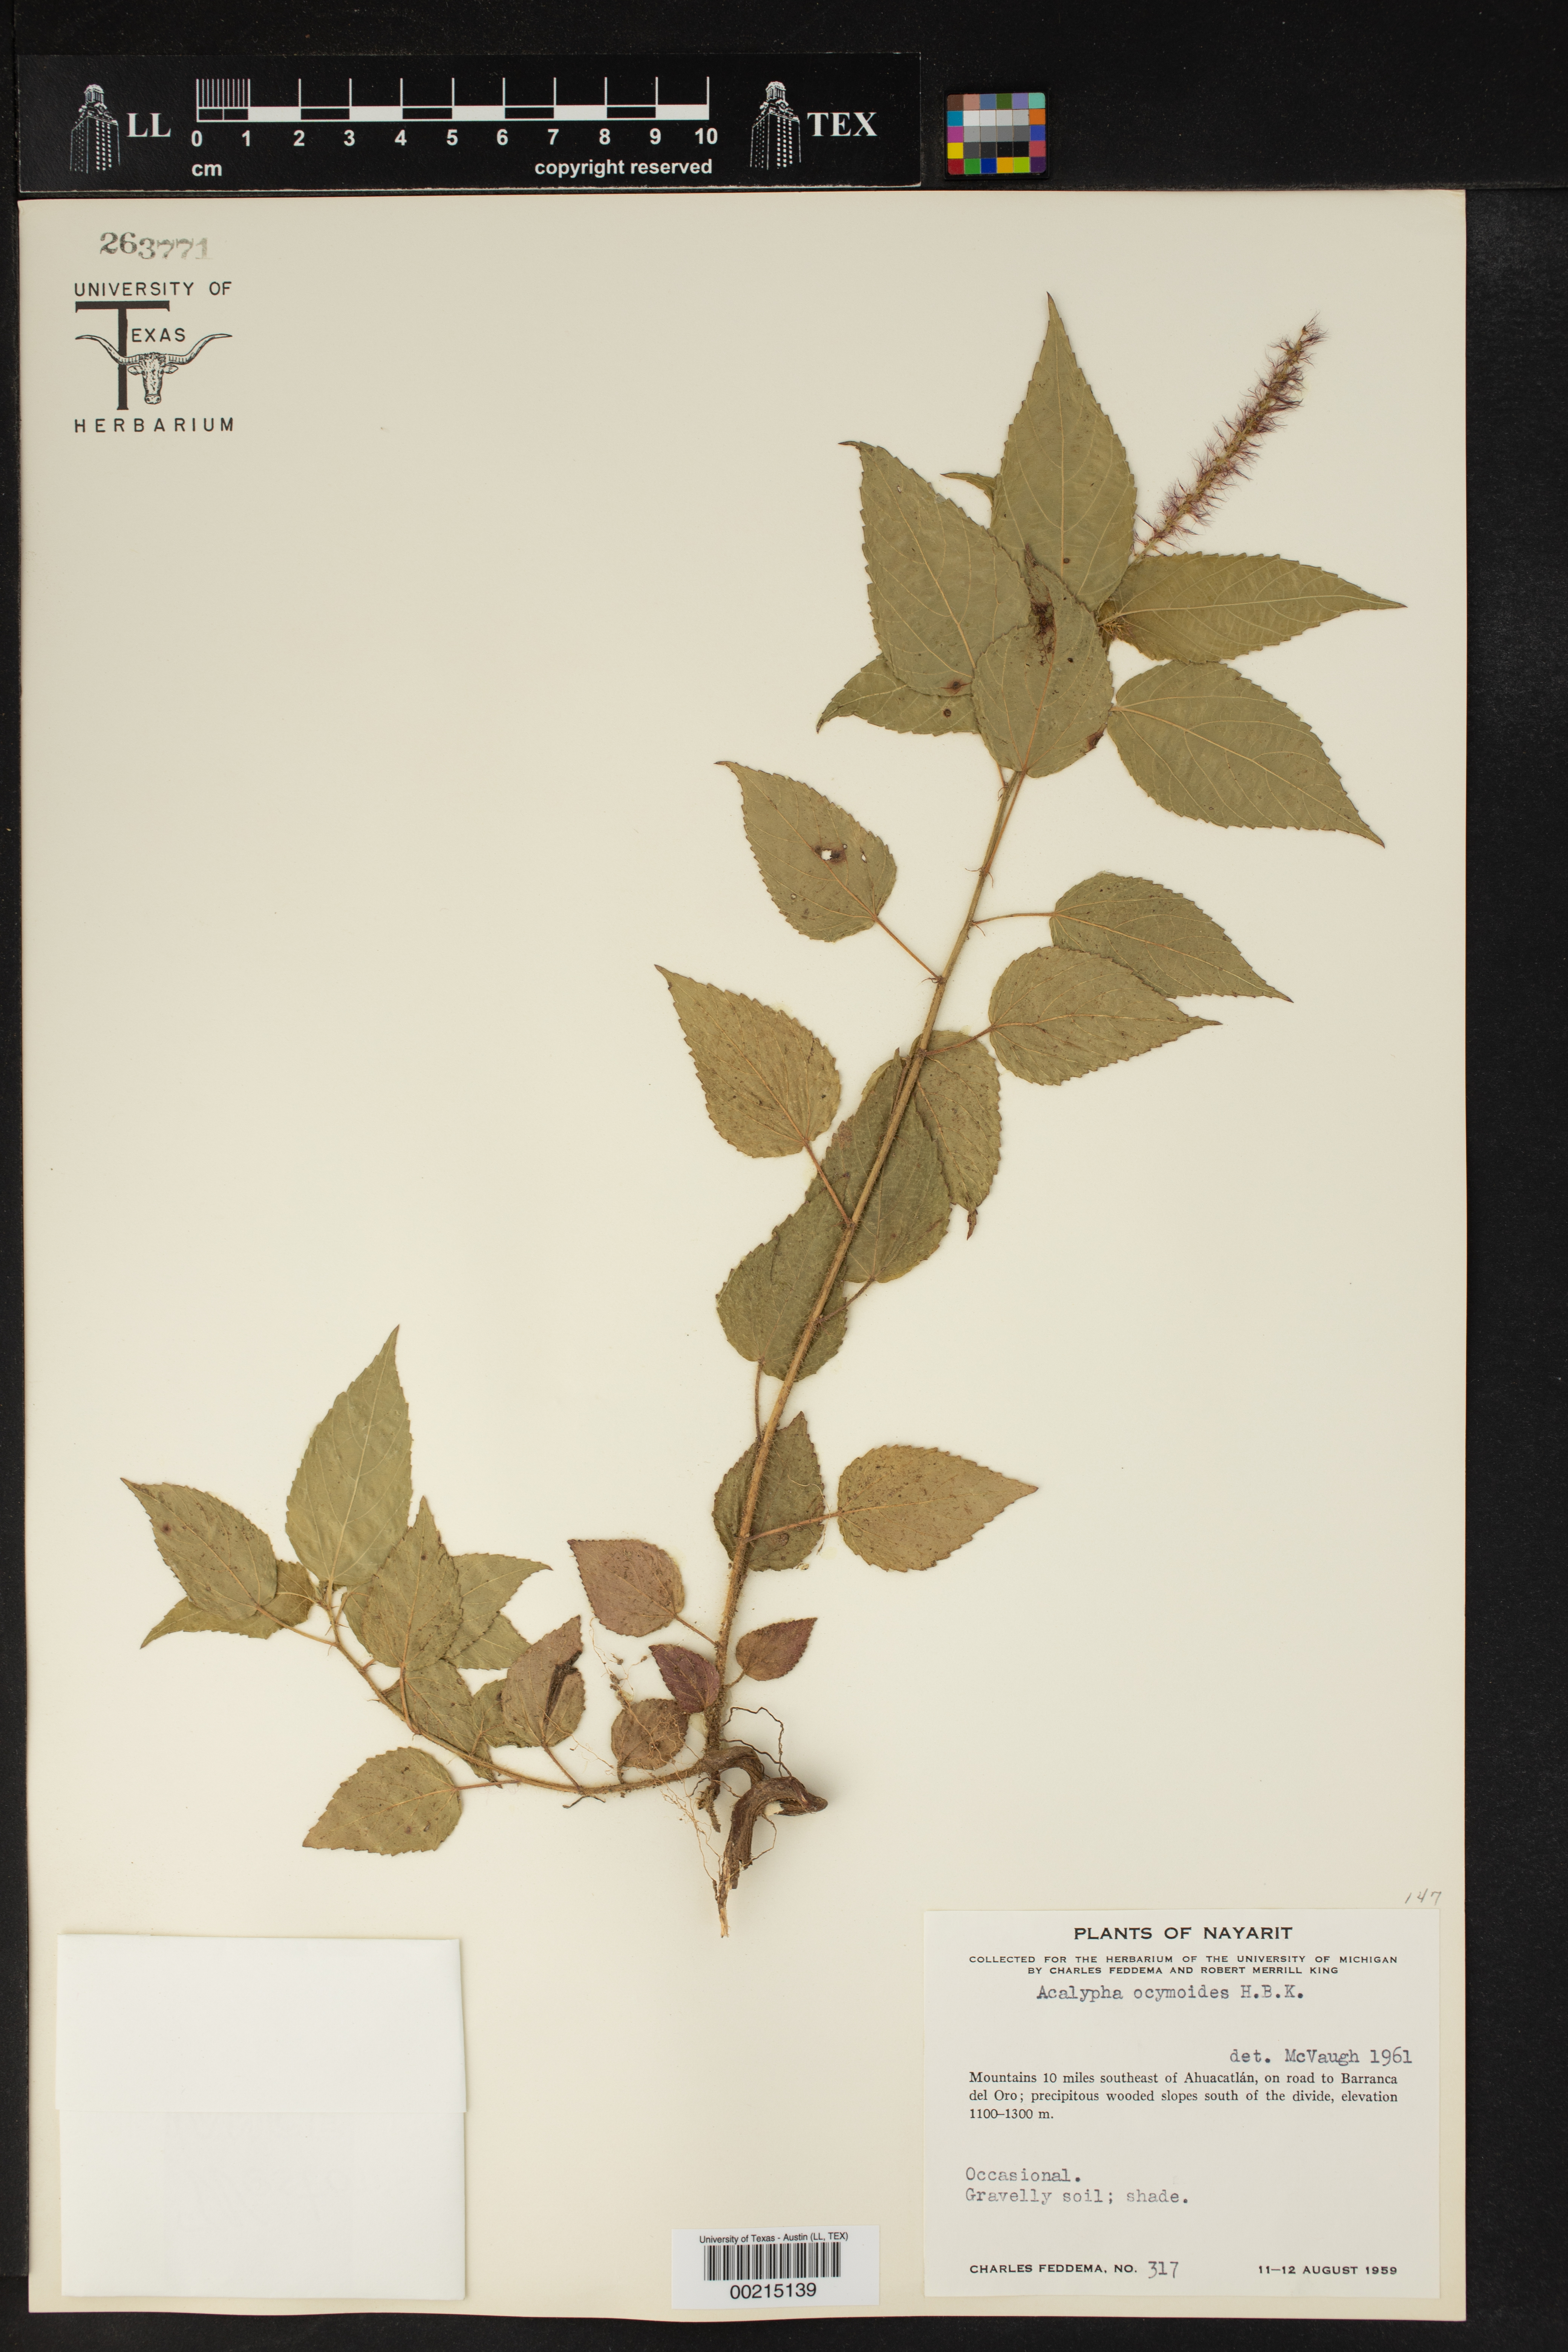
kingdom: Plantae
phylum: Tracheophyta
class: Magnoliopsida
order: Malpighiales
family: Euphorbiaceae
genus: Acalypha
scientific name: Acalypha ocymoides
